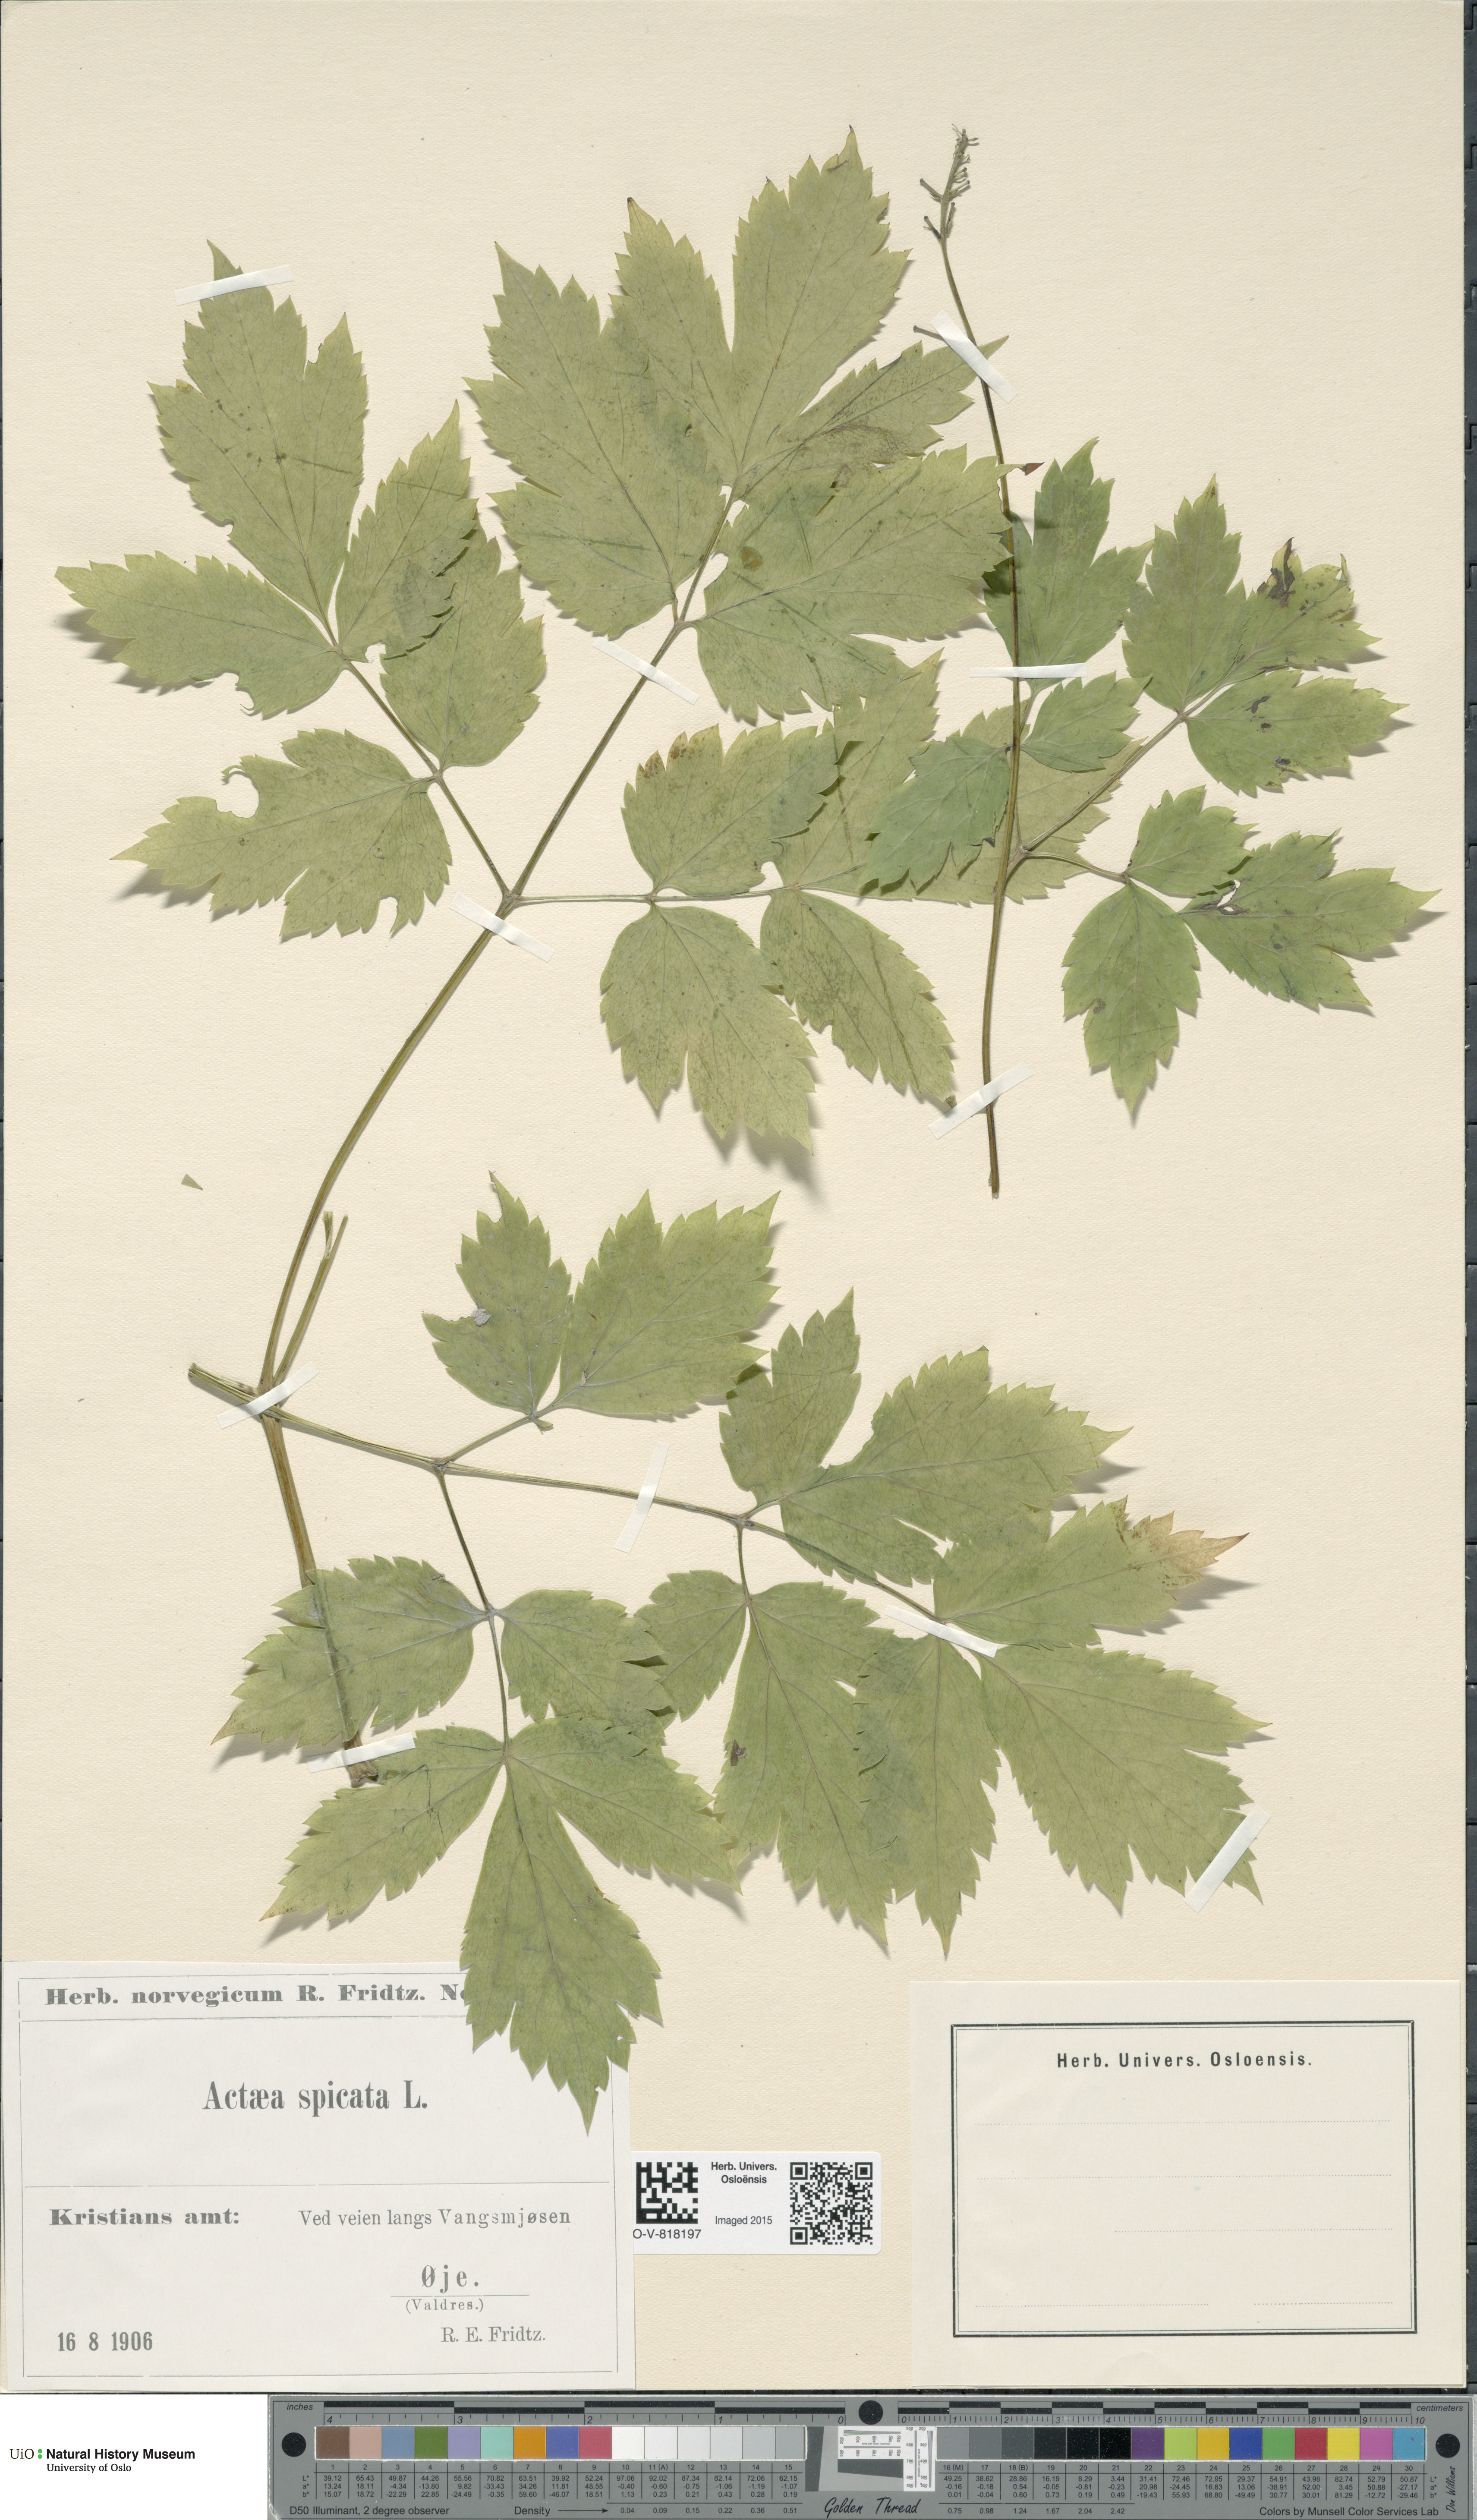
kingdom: Plantae
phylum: Tracheophyta
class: Magnoliopsida
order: Ranunculales
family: Ranunculaceae
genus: Actaea
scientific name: Actaea spicata
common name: Baneberry
